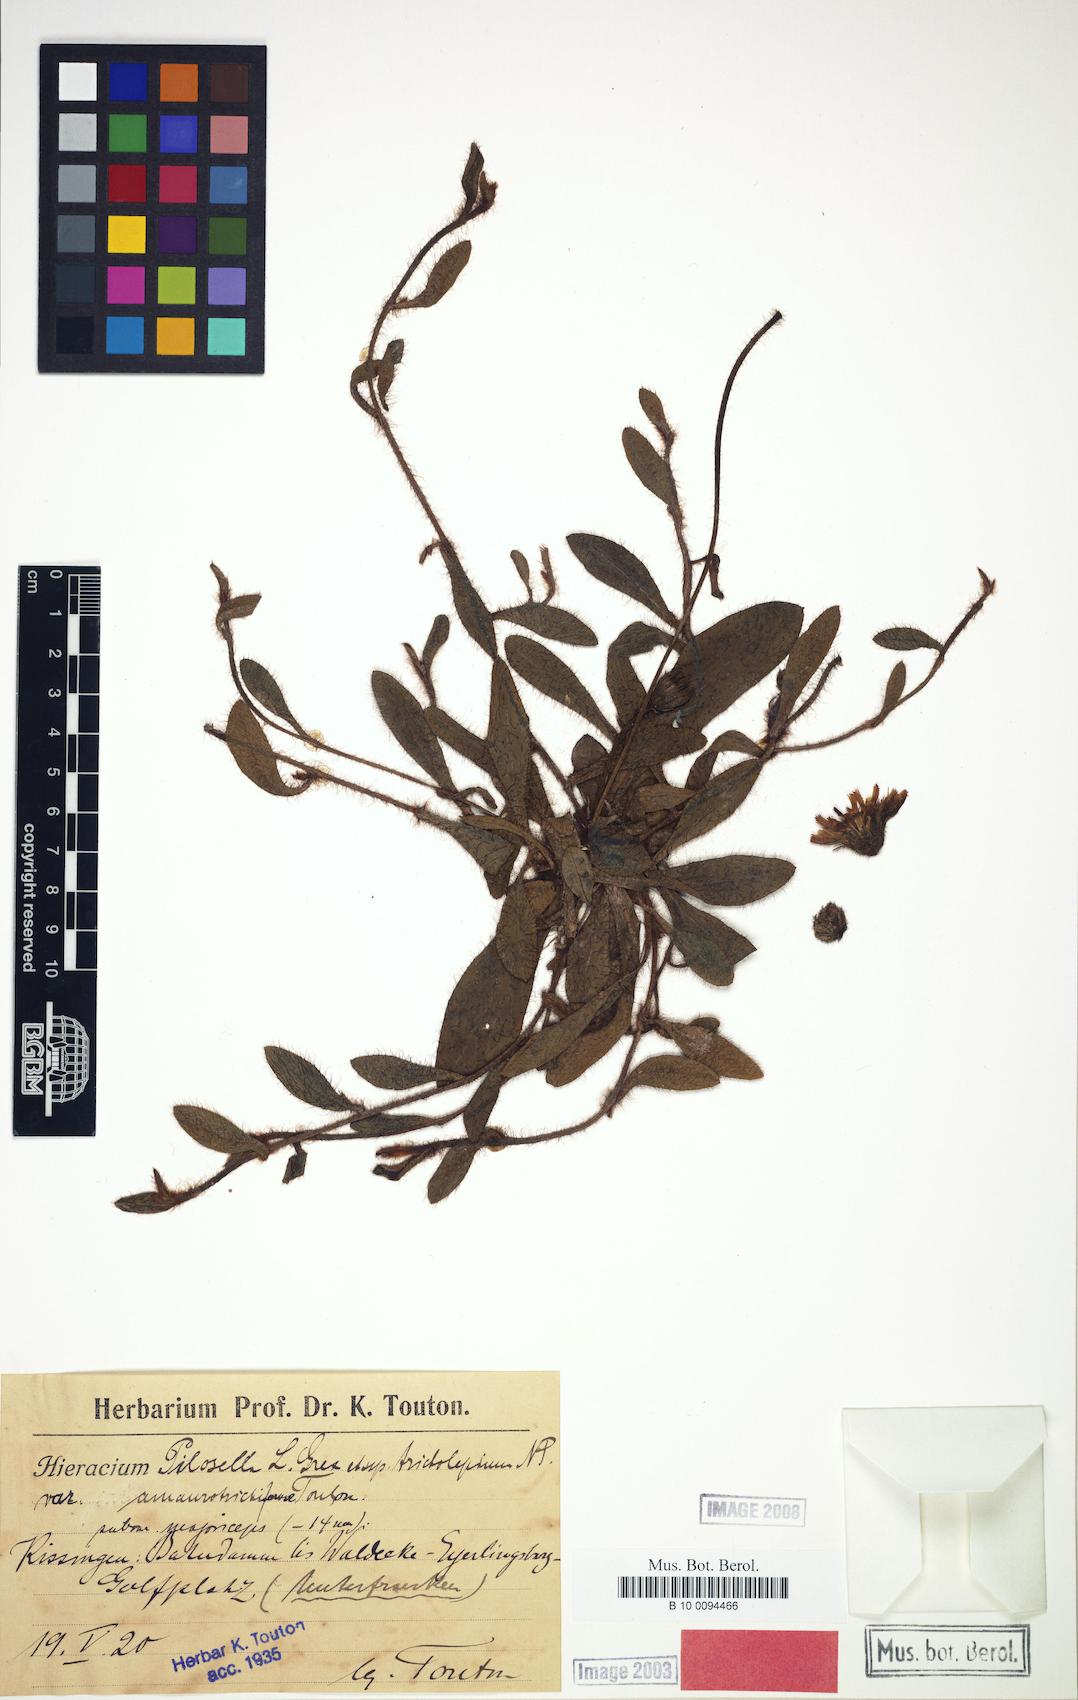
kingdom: Plantae
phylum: Tracheophyta
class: Magnoliopsida
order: Asterales
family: Asteraceae
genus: Pilosella
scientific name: Pilosella officinarum
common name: Mouse-ear hawkweed
